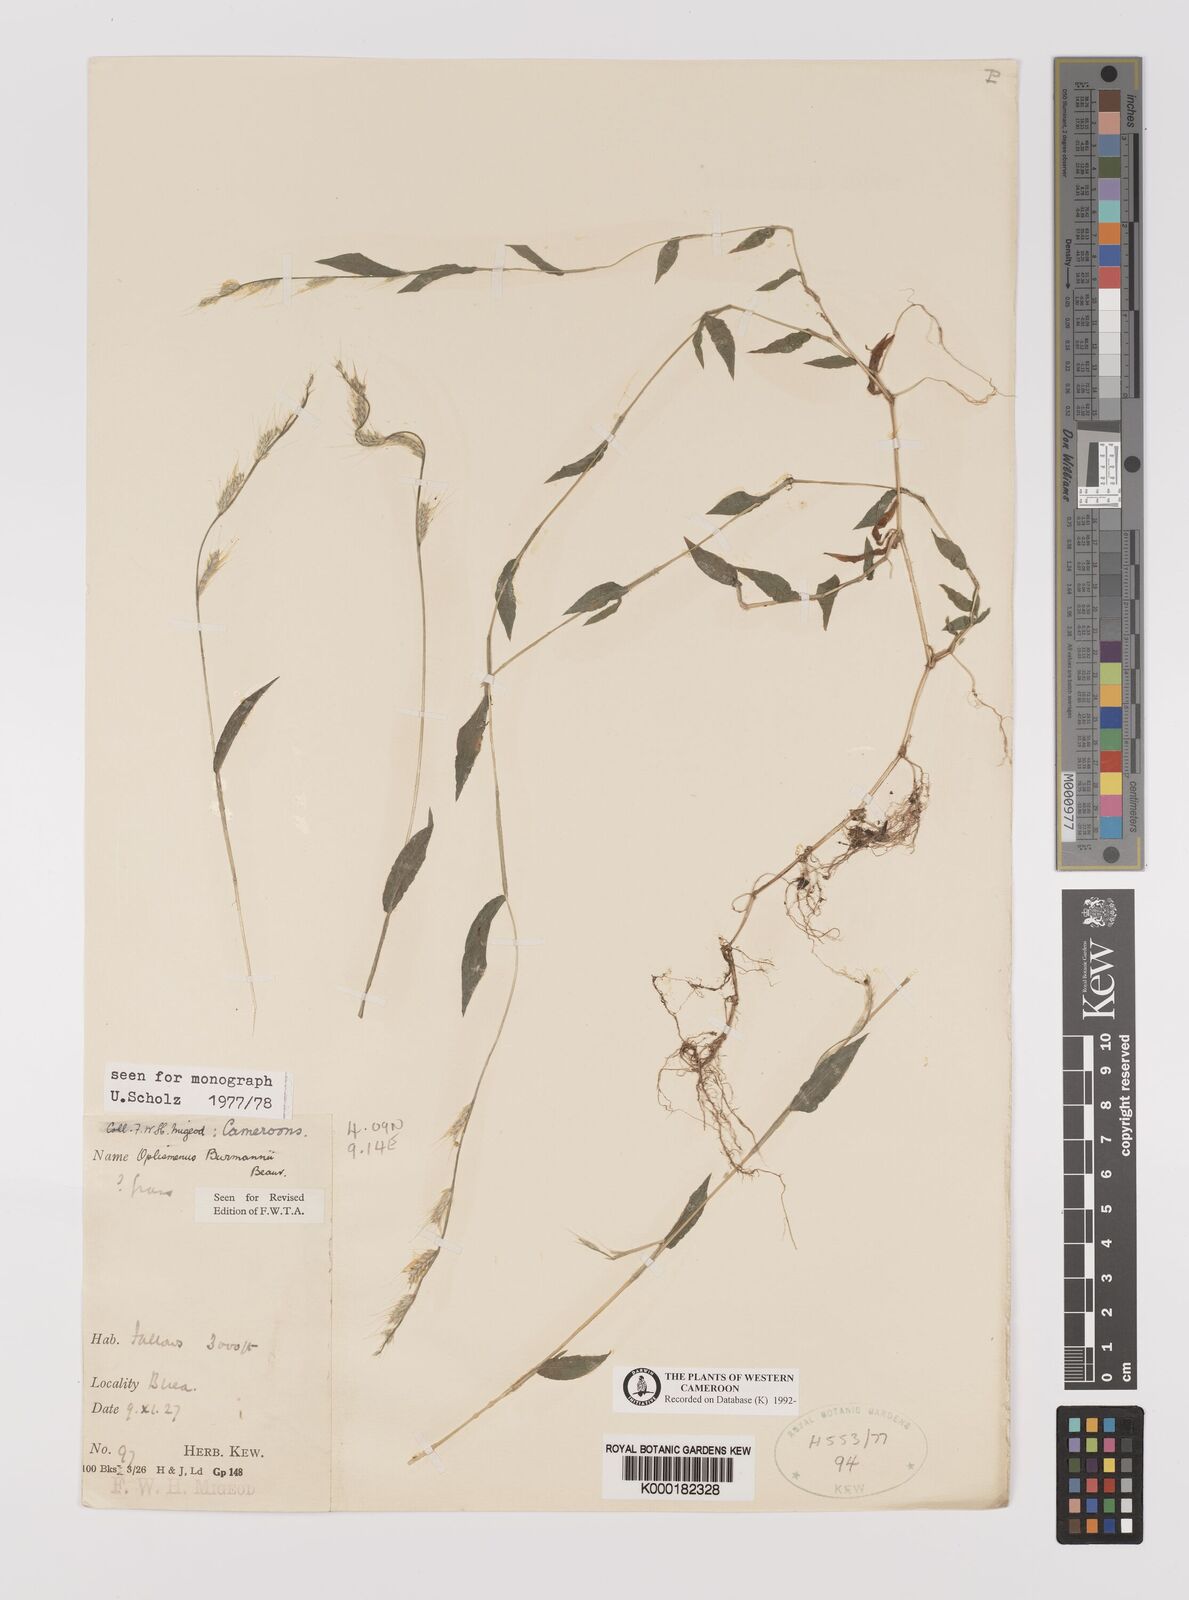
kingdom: Plantae
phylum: Tracheophyta
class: Liliopsida
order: Poales
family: Poaceae
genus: Oplismenus
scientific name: Oplismenus burmanni
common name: Burmann's basketgrass
